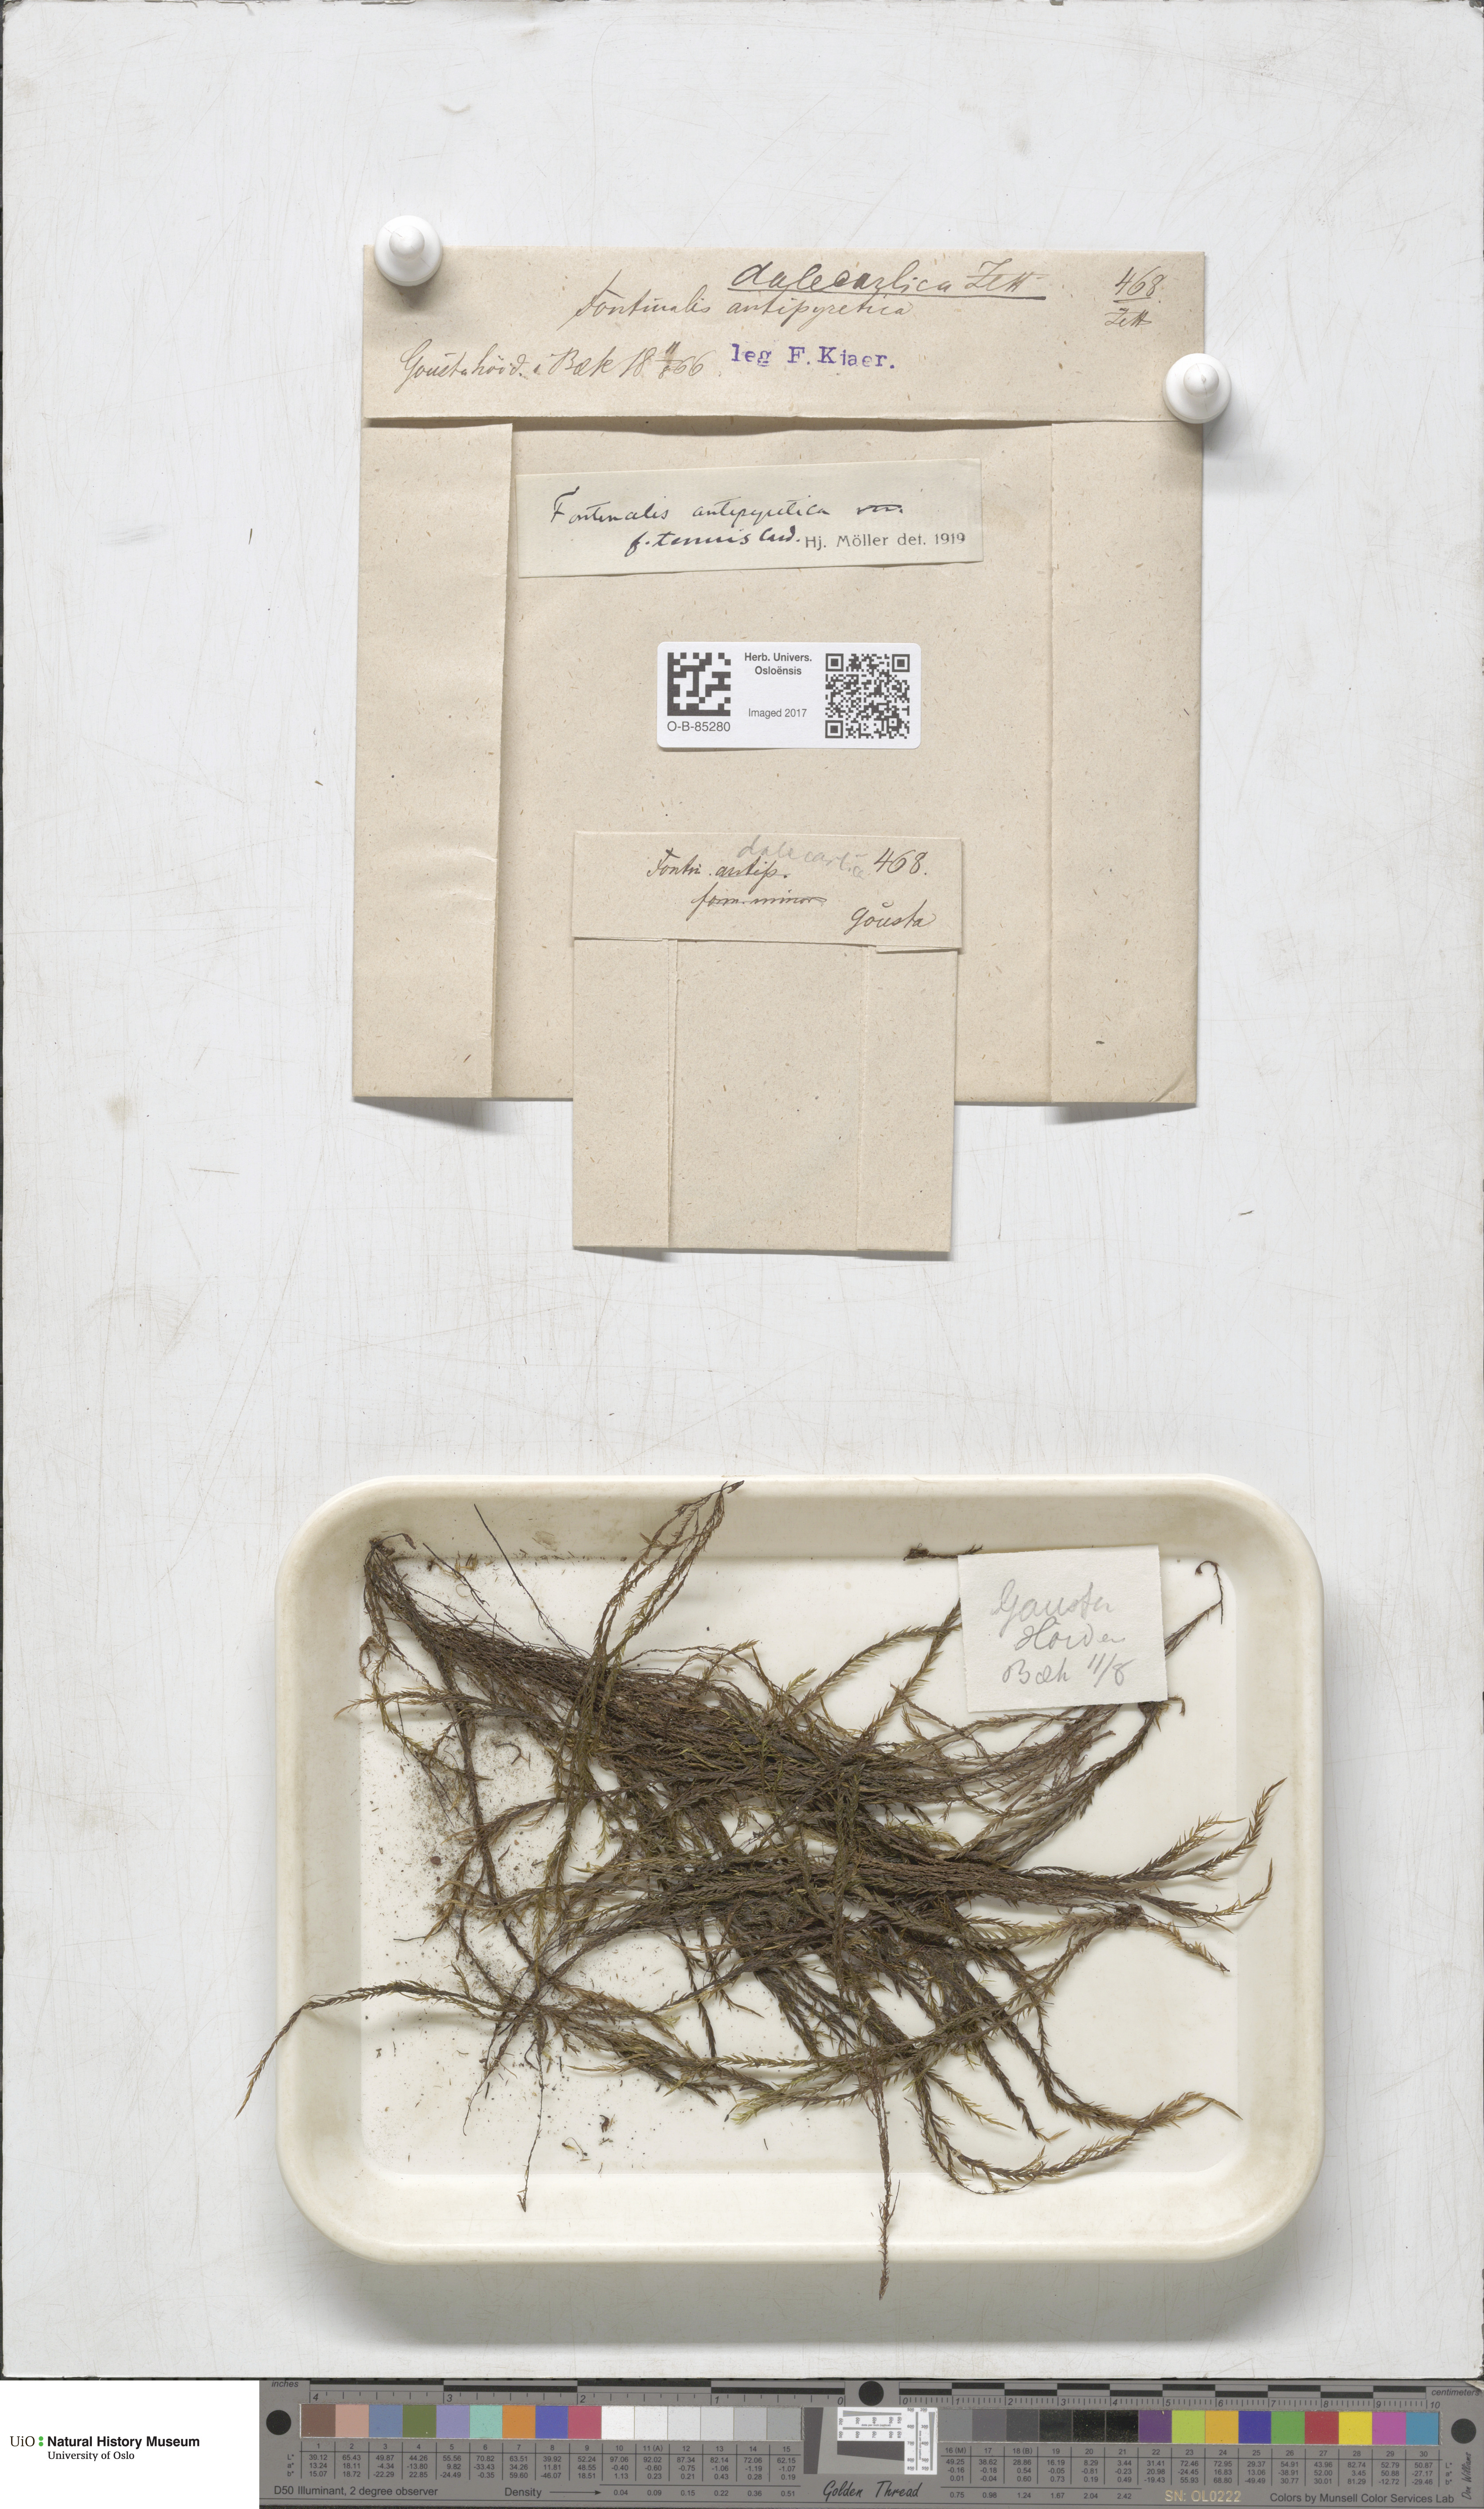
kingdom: Plantae
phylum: Bryophyta
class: Bryopsida
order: Hypnales
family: Fontinalaceae
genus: Fontinalis
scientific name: Fontinalis antipyretica
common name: Greater water-moss
